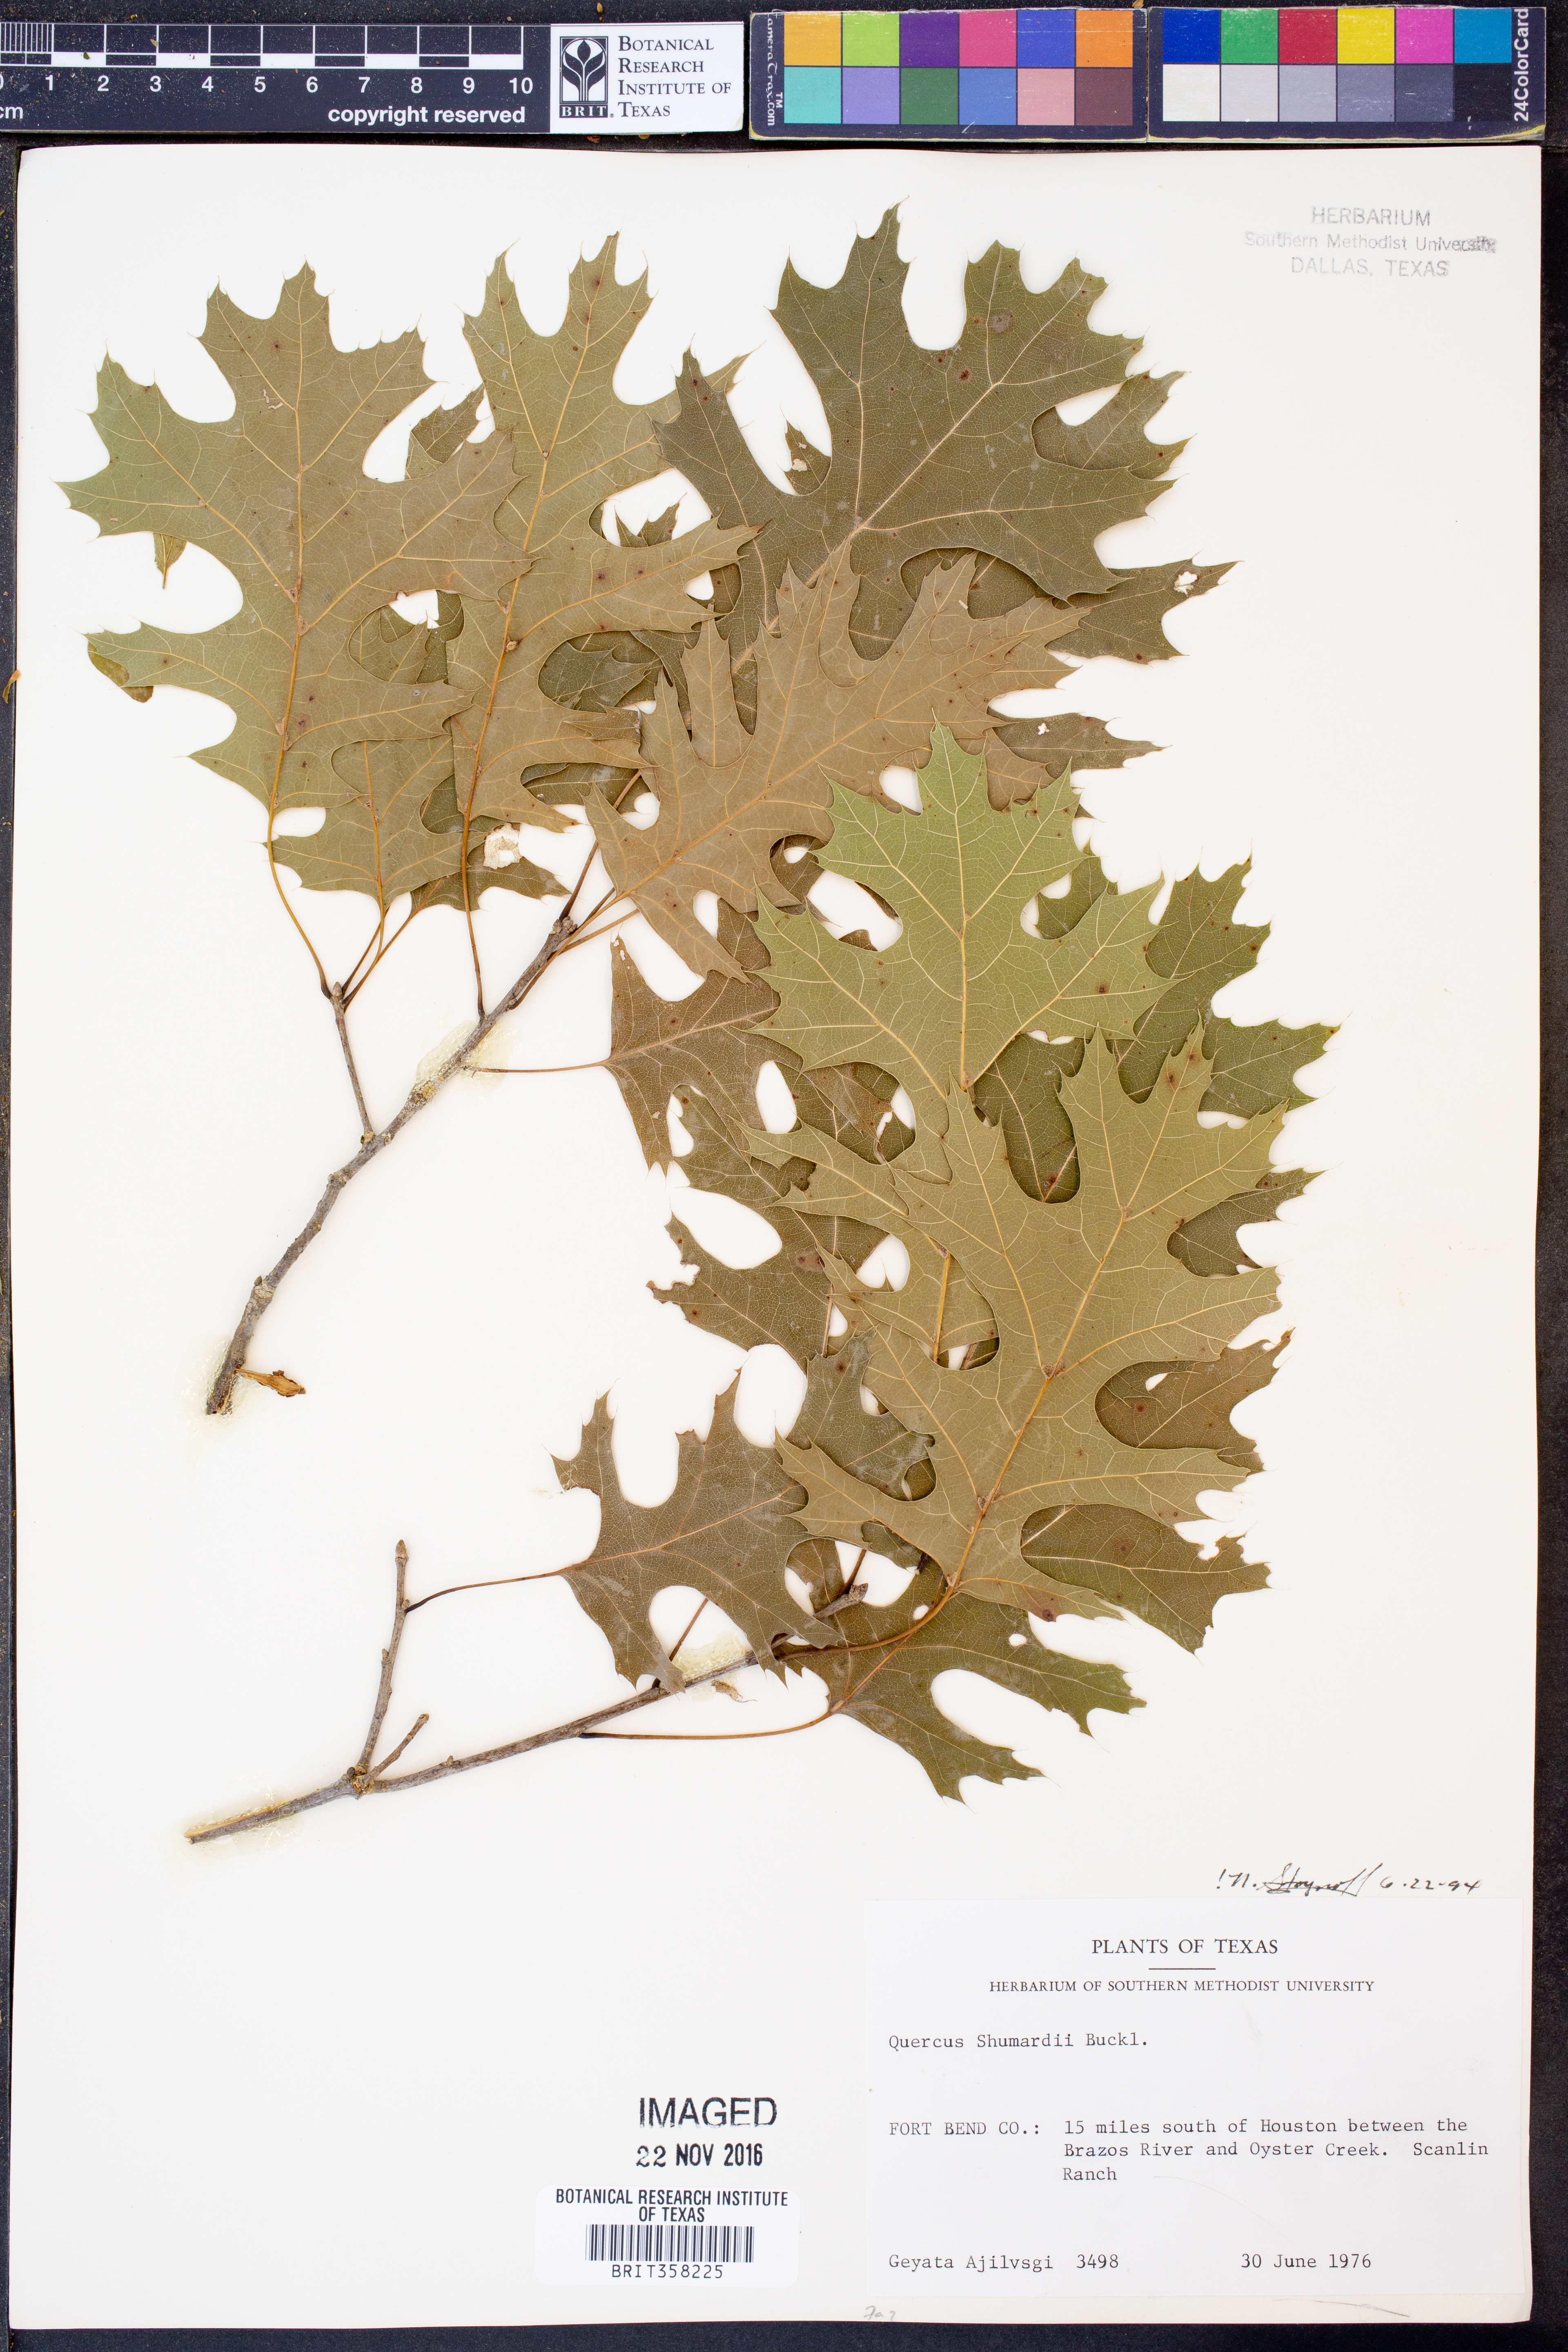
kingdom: Plantae
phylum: Tracheophyta
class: Magnoliopsida
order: Fagales
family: Fagaceae
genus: Quercus
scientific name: Quercus shumardii
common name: Shumard oak
